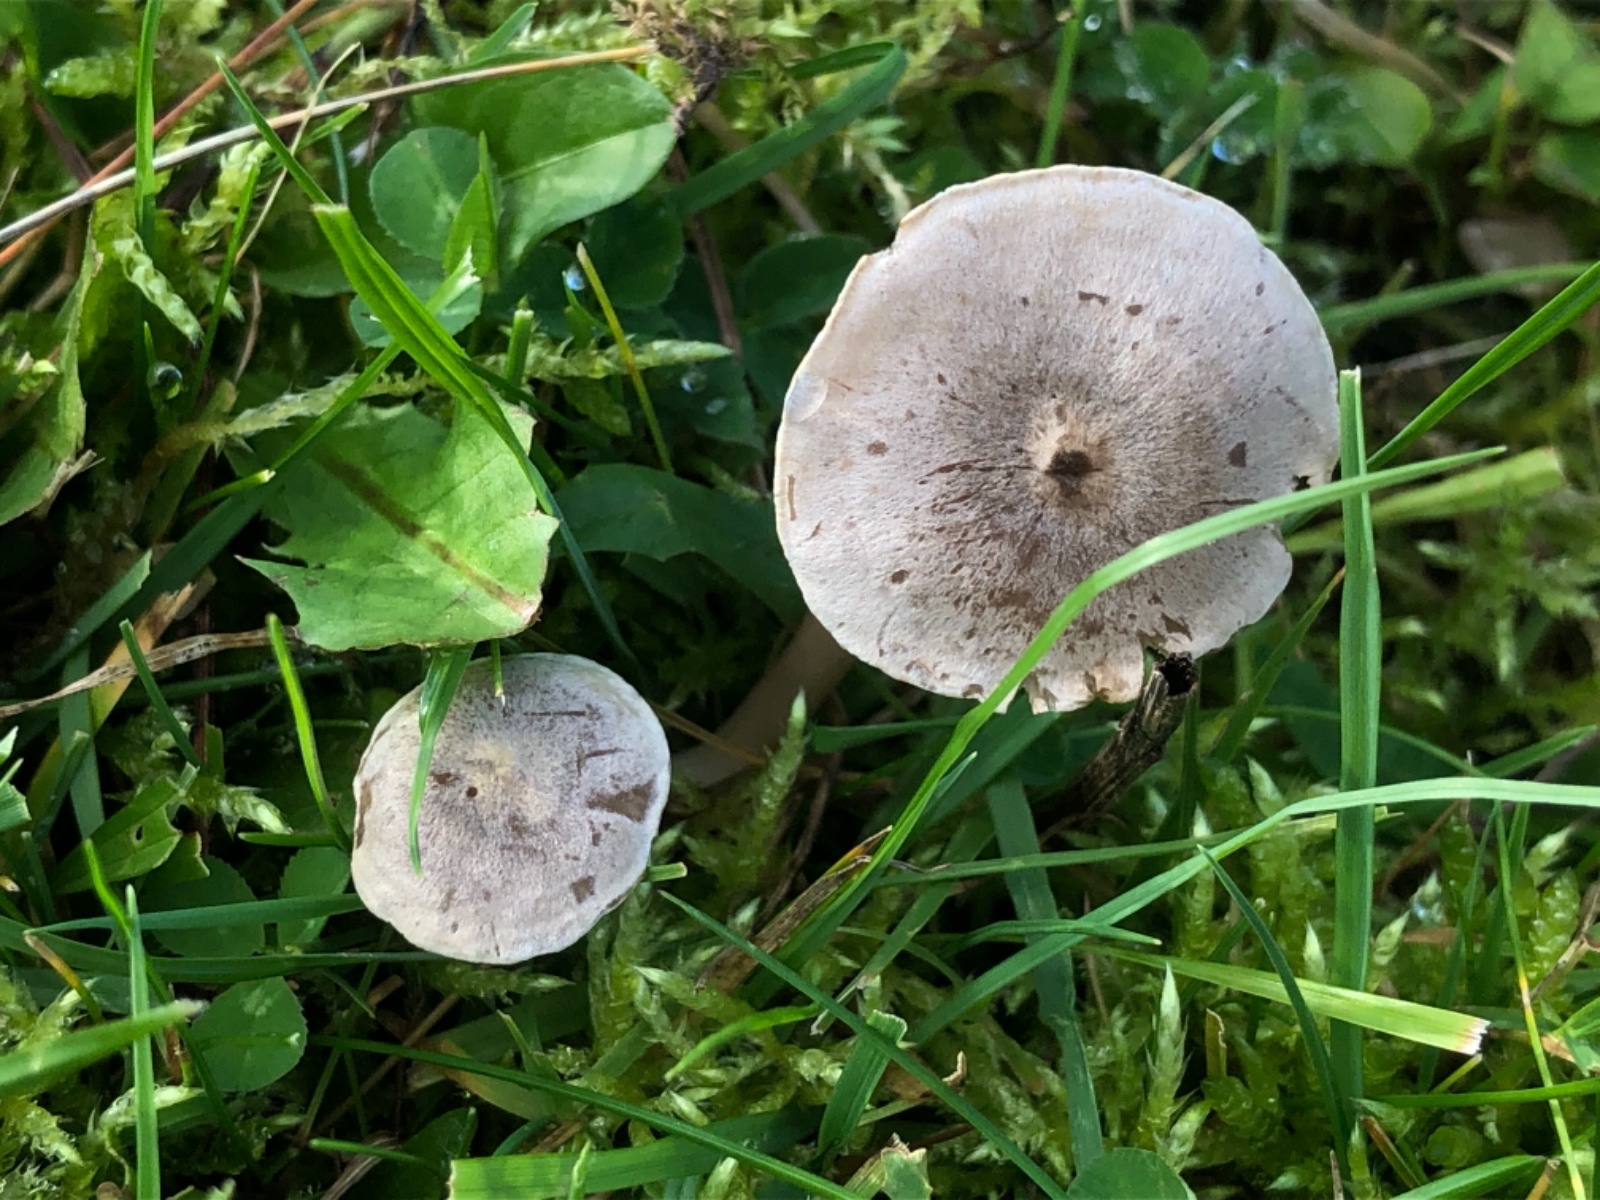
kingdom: Fungi
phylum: Basidiomycota
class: Agaricomycetes
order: Agaricales
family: Entolomataceae
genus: Entoloma
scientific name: Entoloma korhonenii
